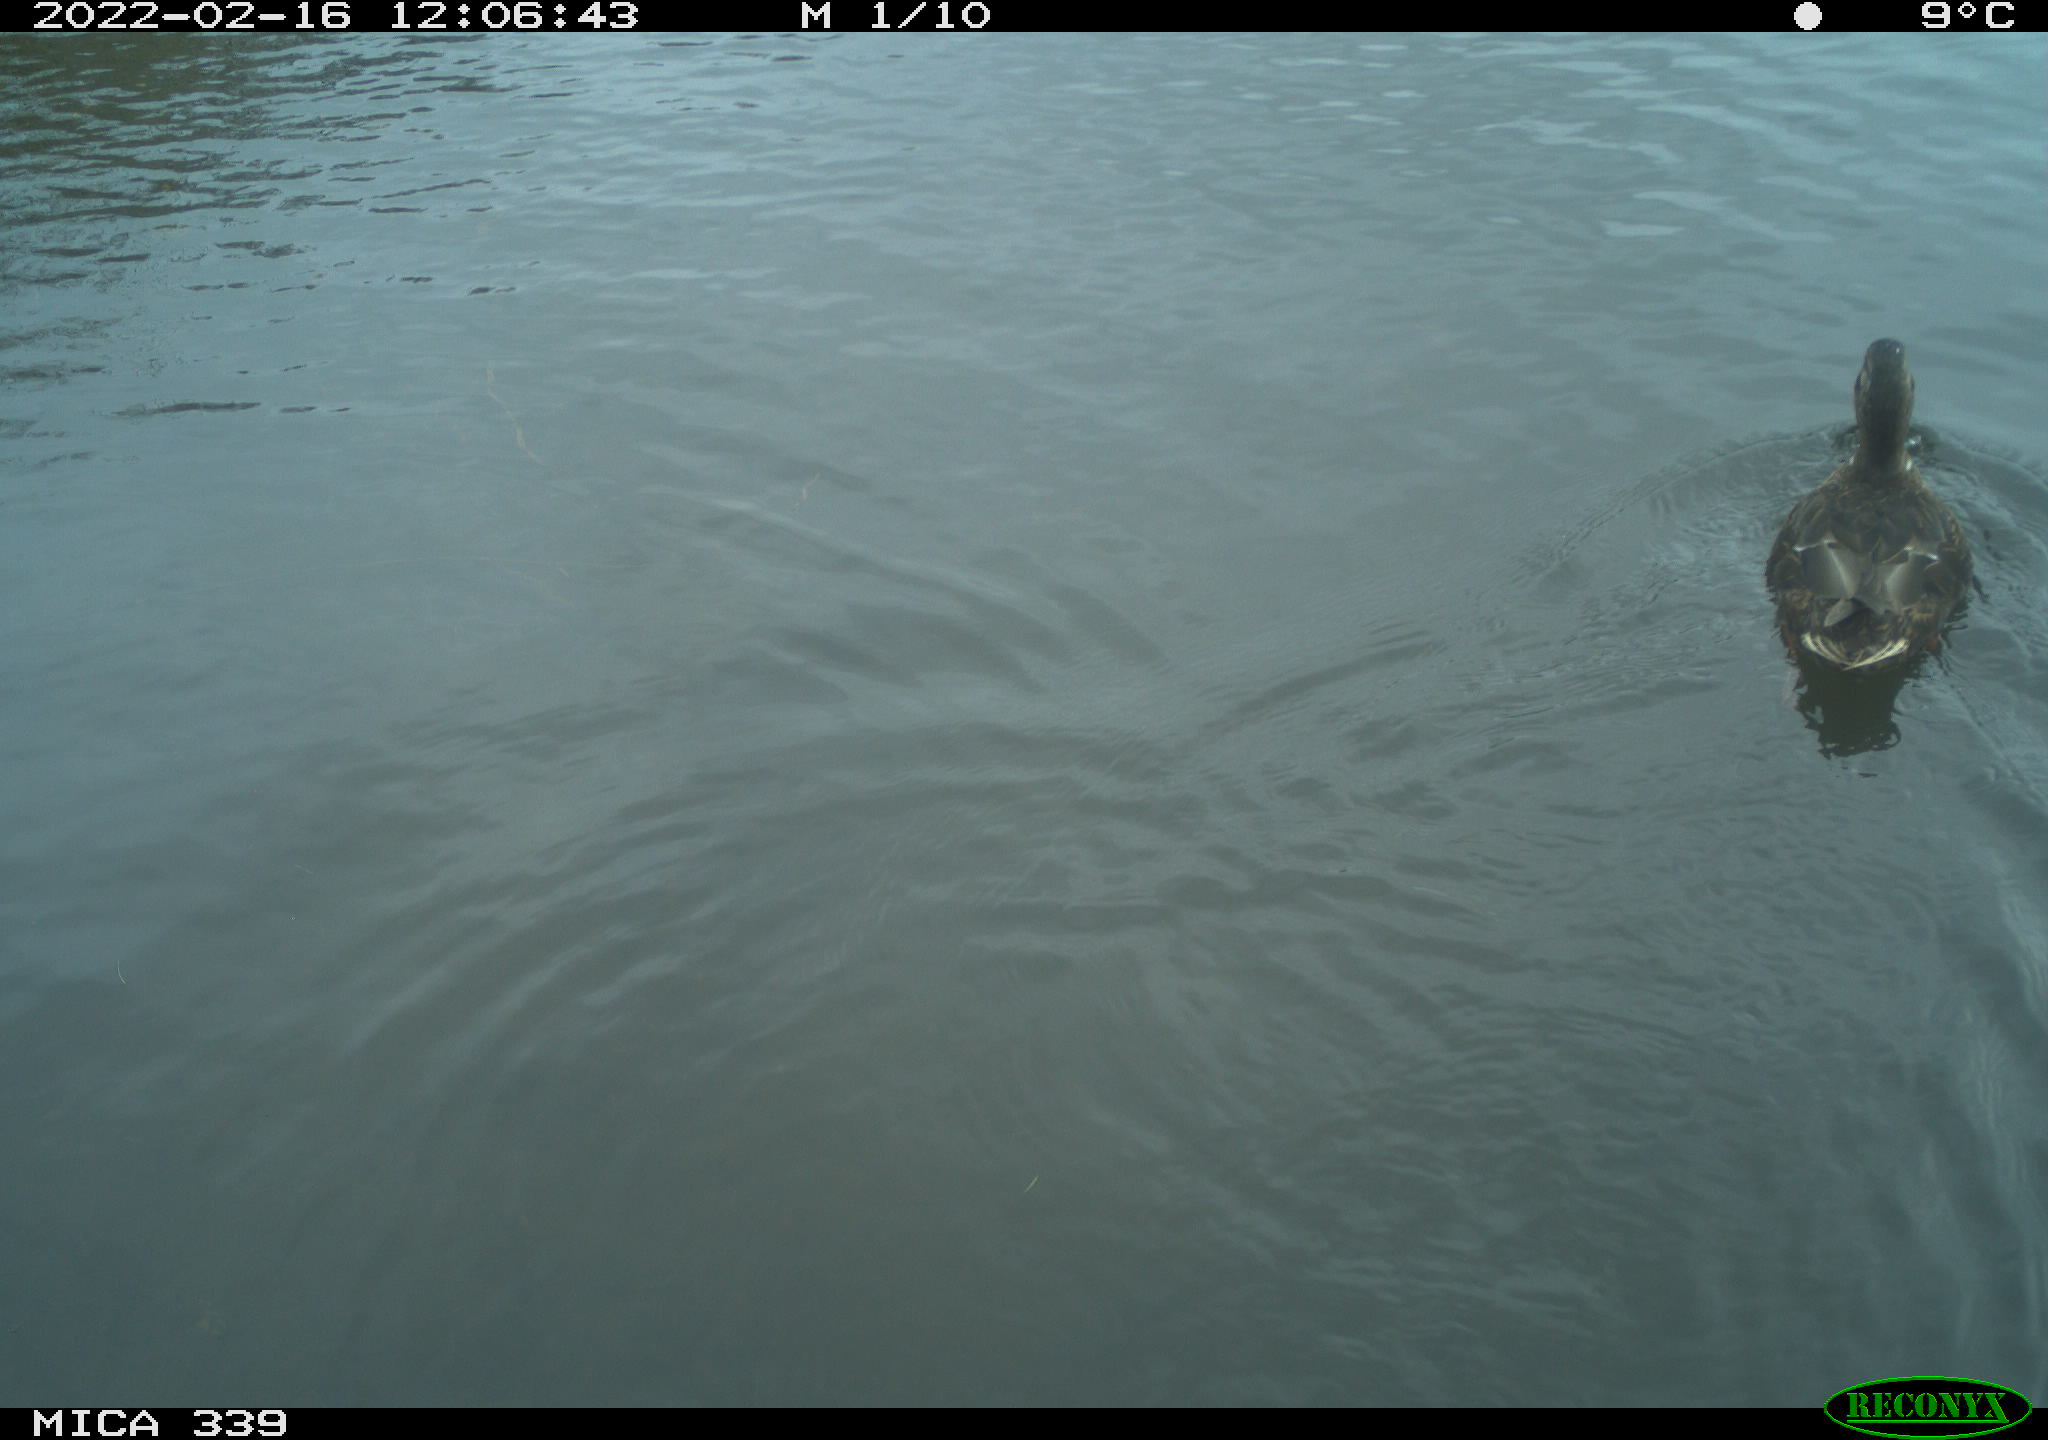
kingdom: Animalia
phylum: Chordata
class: Aves
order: Anseriformes
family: Anatidae
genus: Anas
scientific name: Anas platyrhynchos
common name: Mallard
